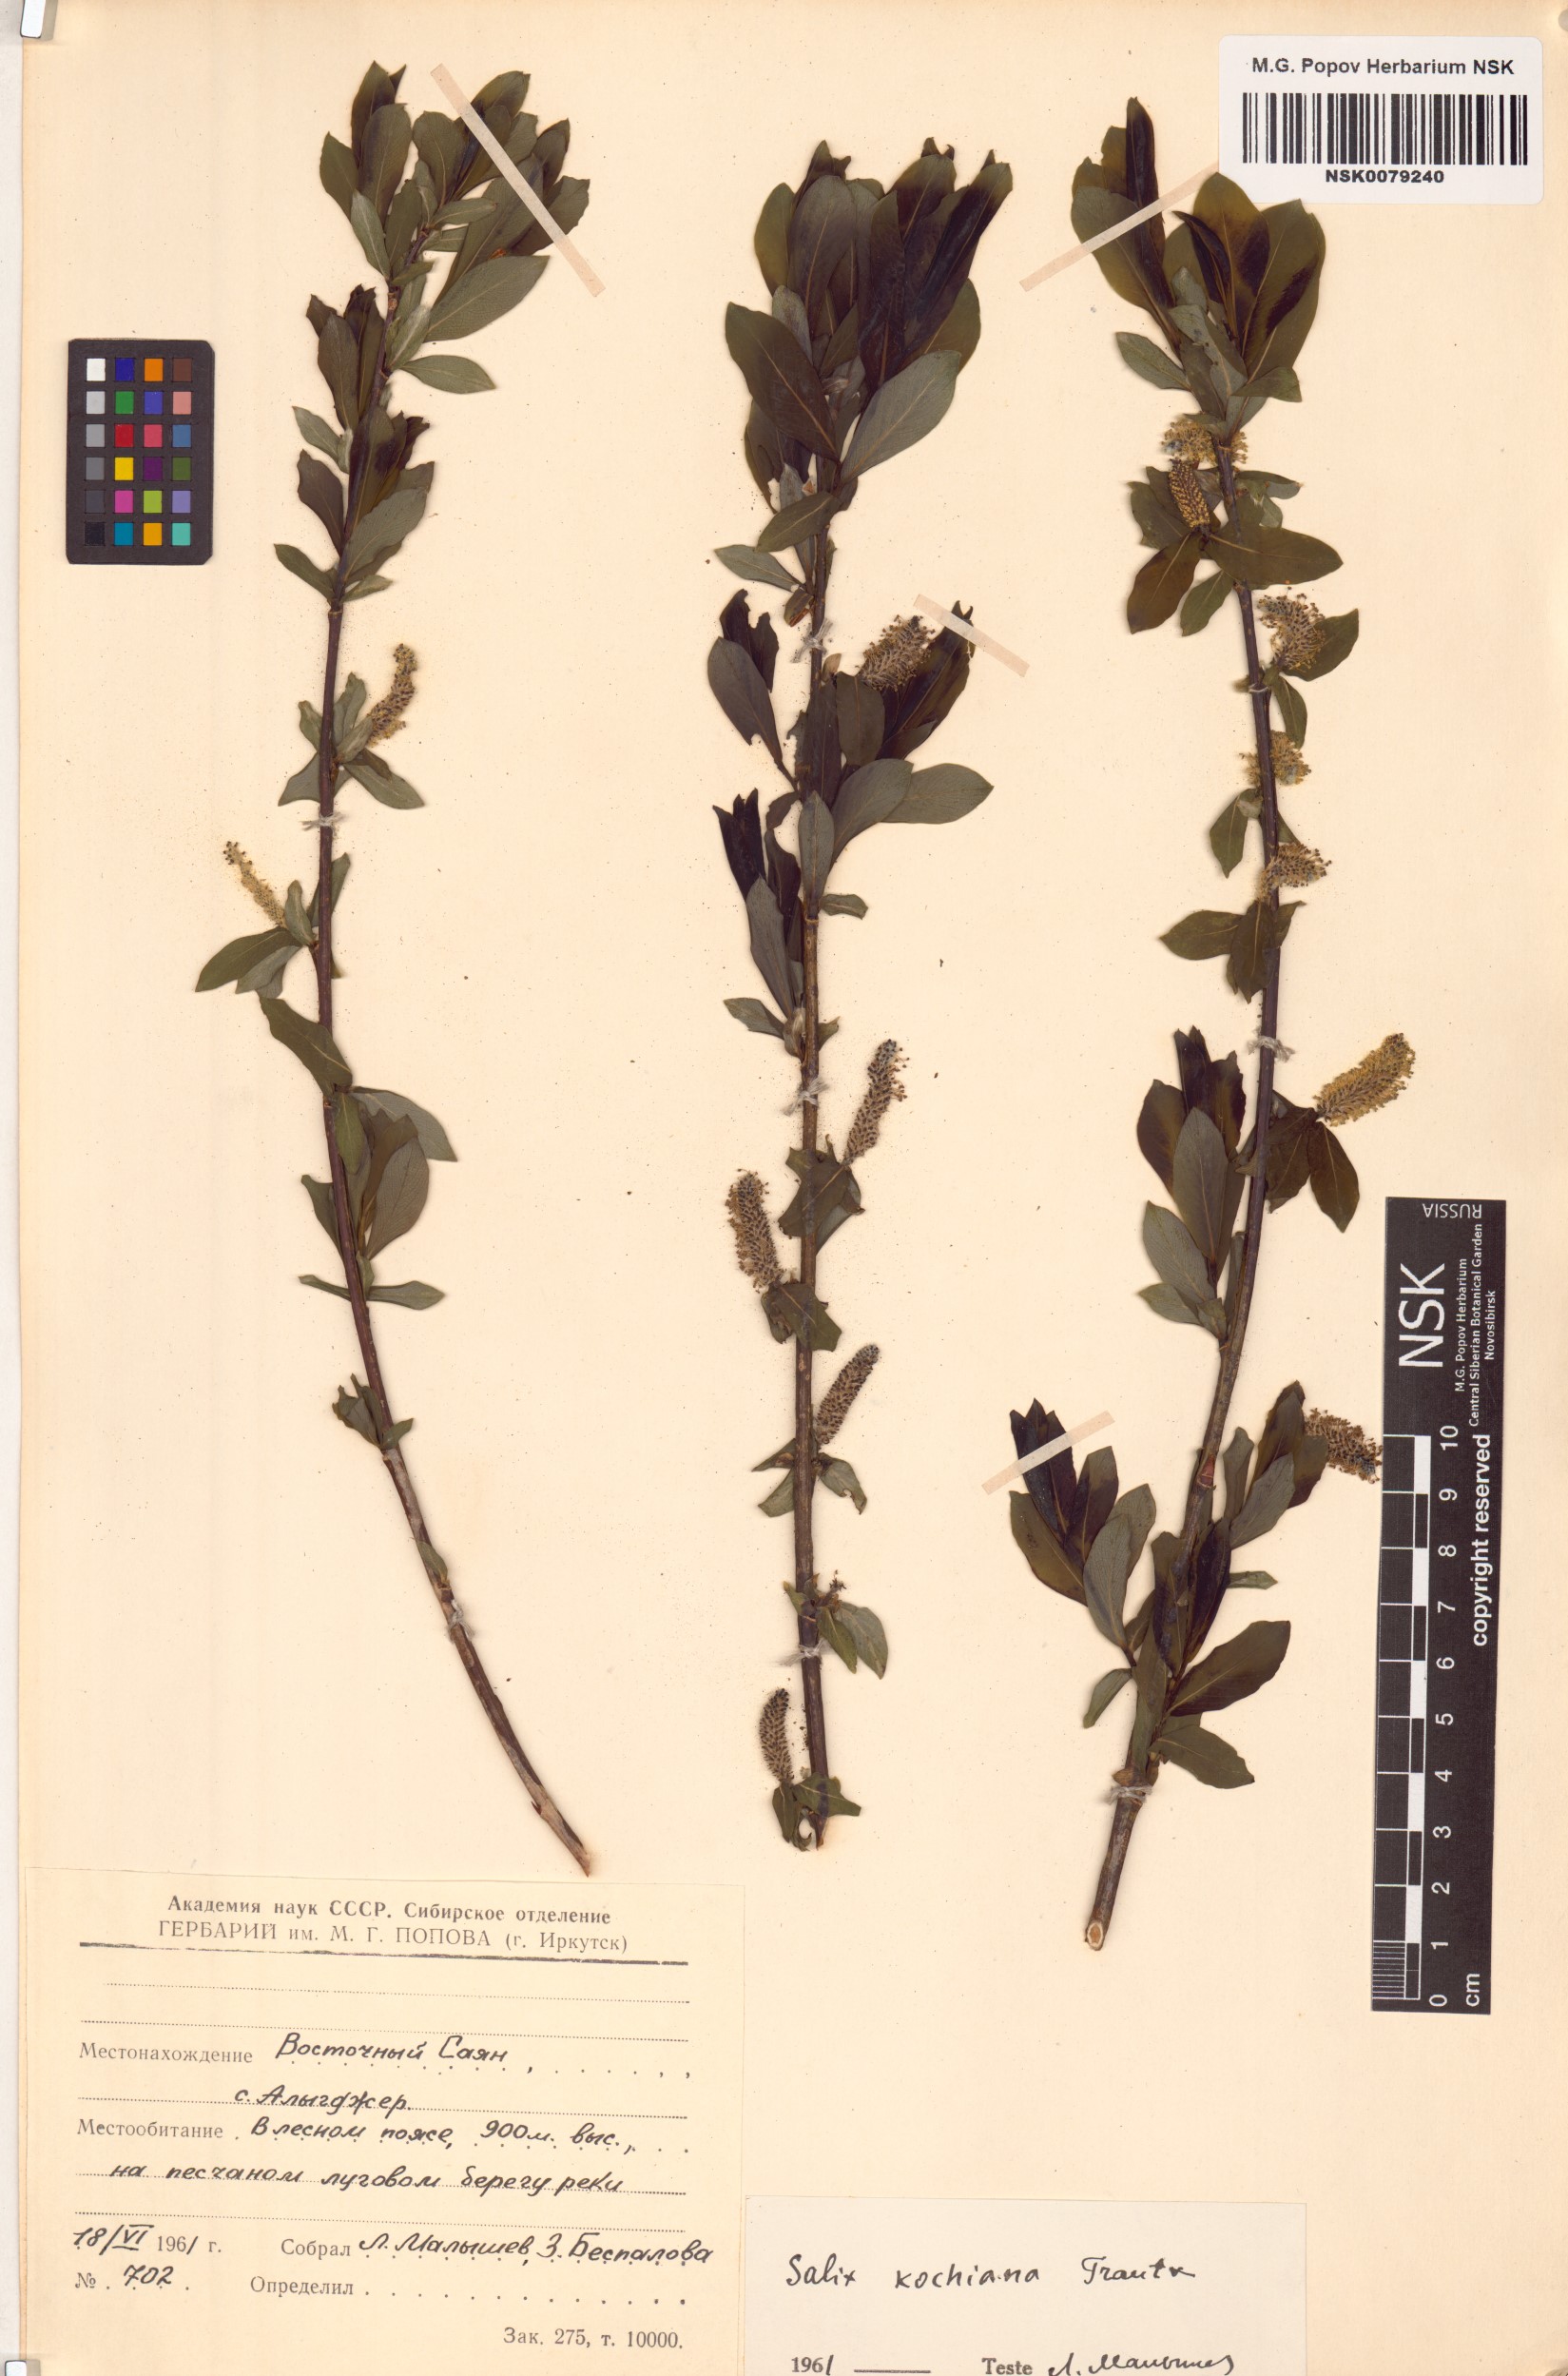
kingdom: Plantae
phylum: Tracheophyta
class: Magnoliopsida
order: Malpighiales
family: Salicaceae
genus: Salix
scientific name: Salix kochiana
